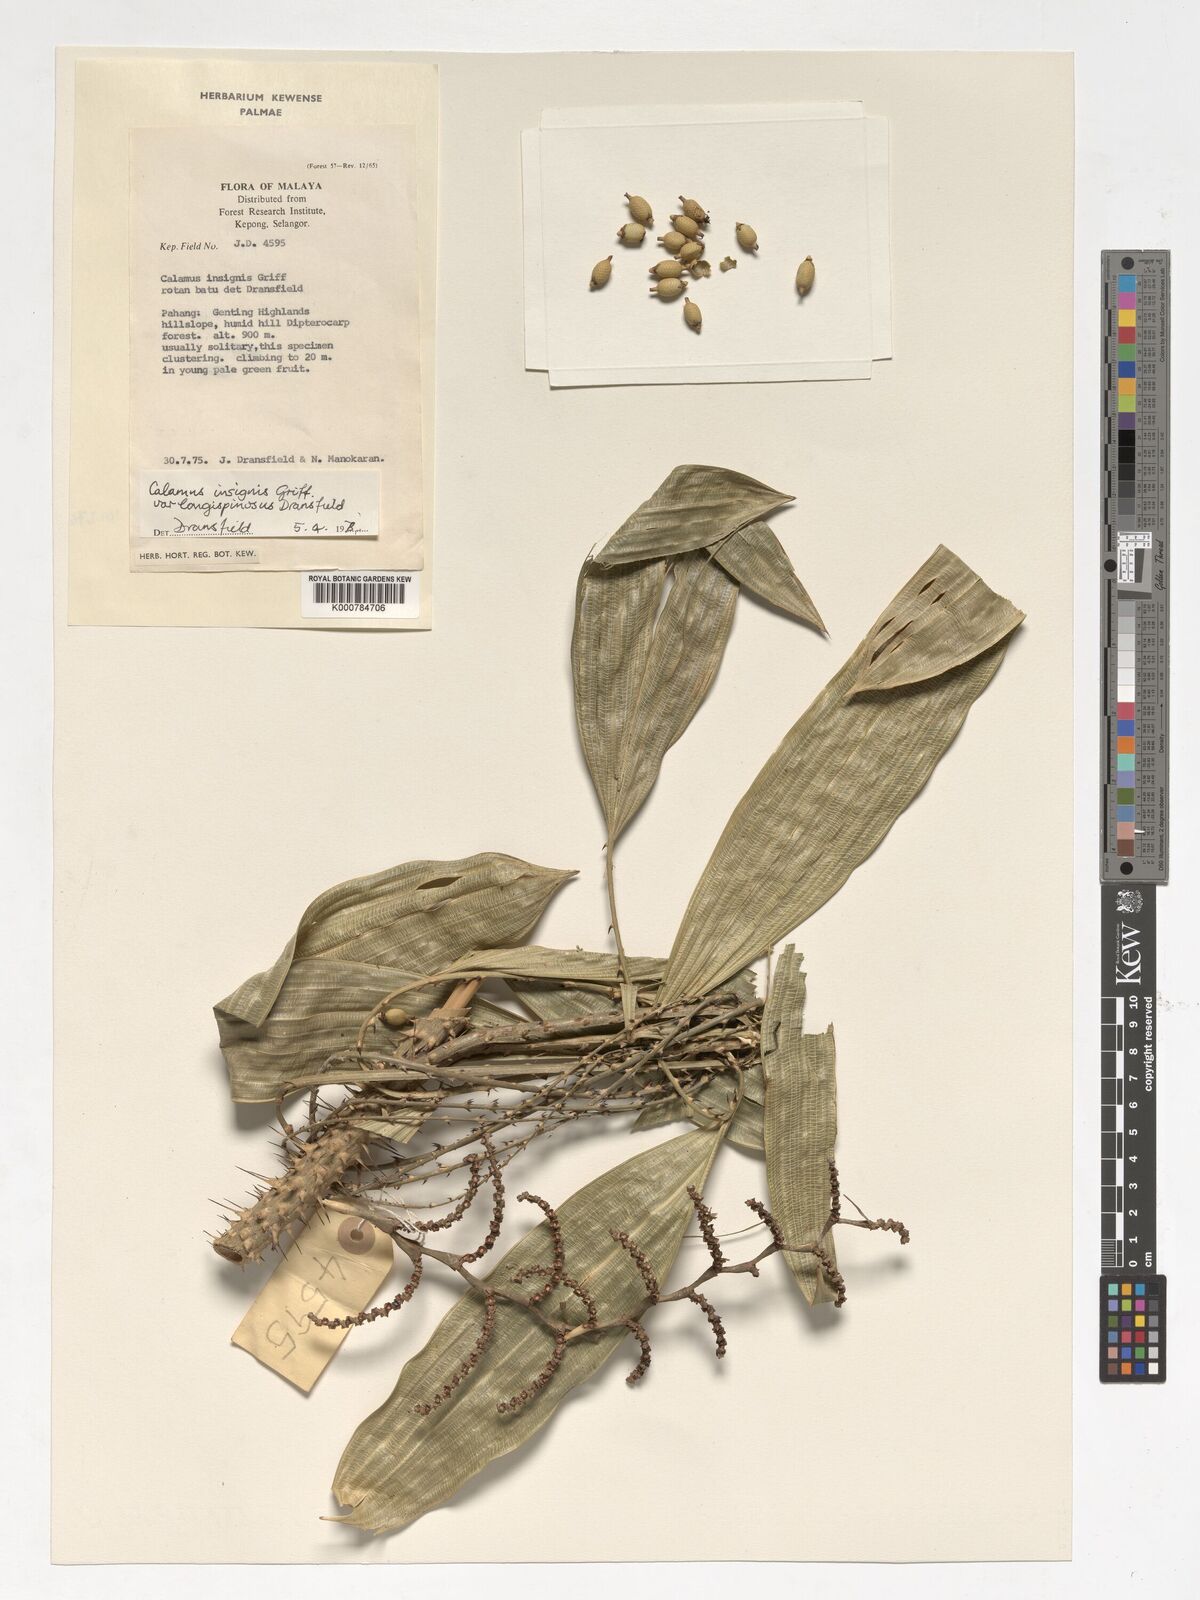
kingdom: Plantae
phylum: Tracheophyta
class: Liliopsida
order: Arecales
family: Arecaceae
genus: Calamus
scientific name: Calamus longiusculus
